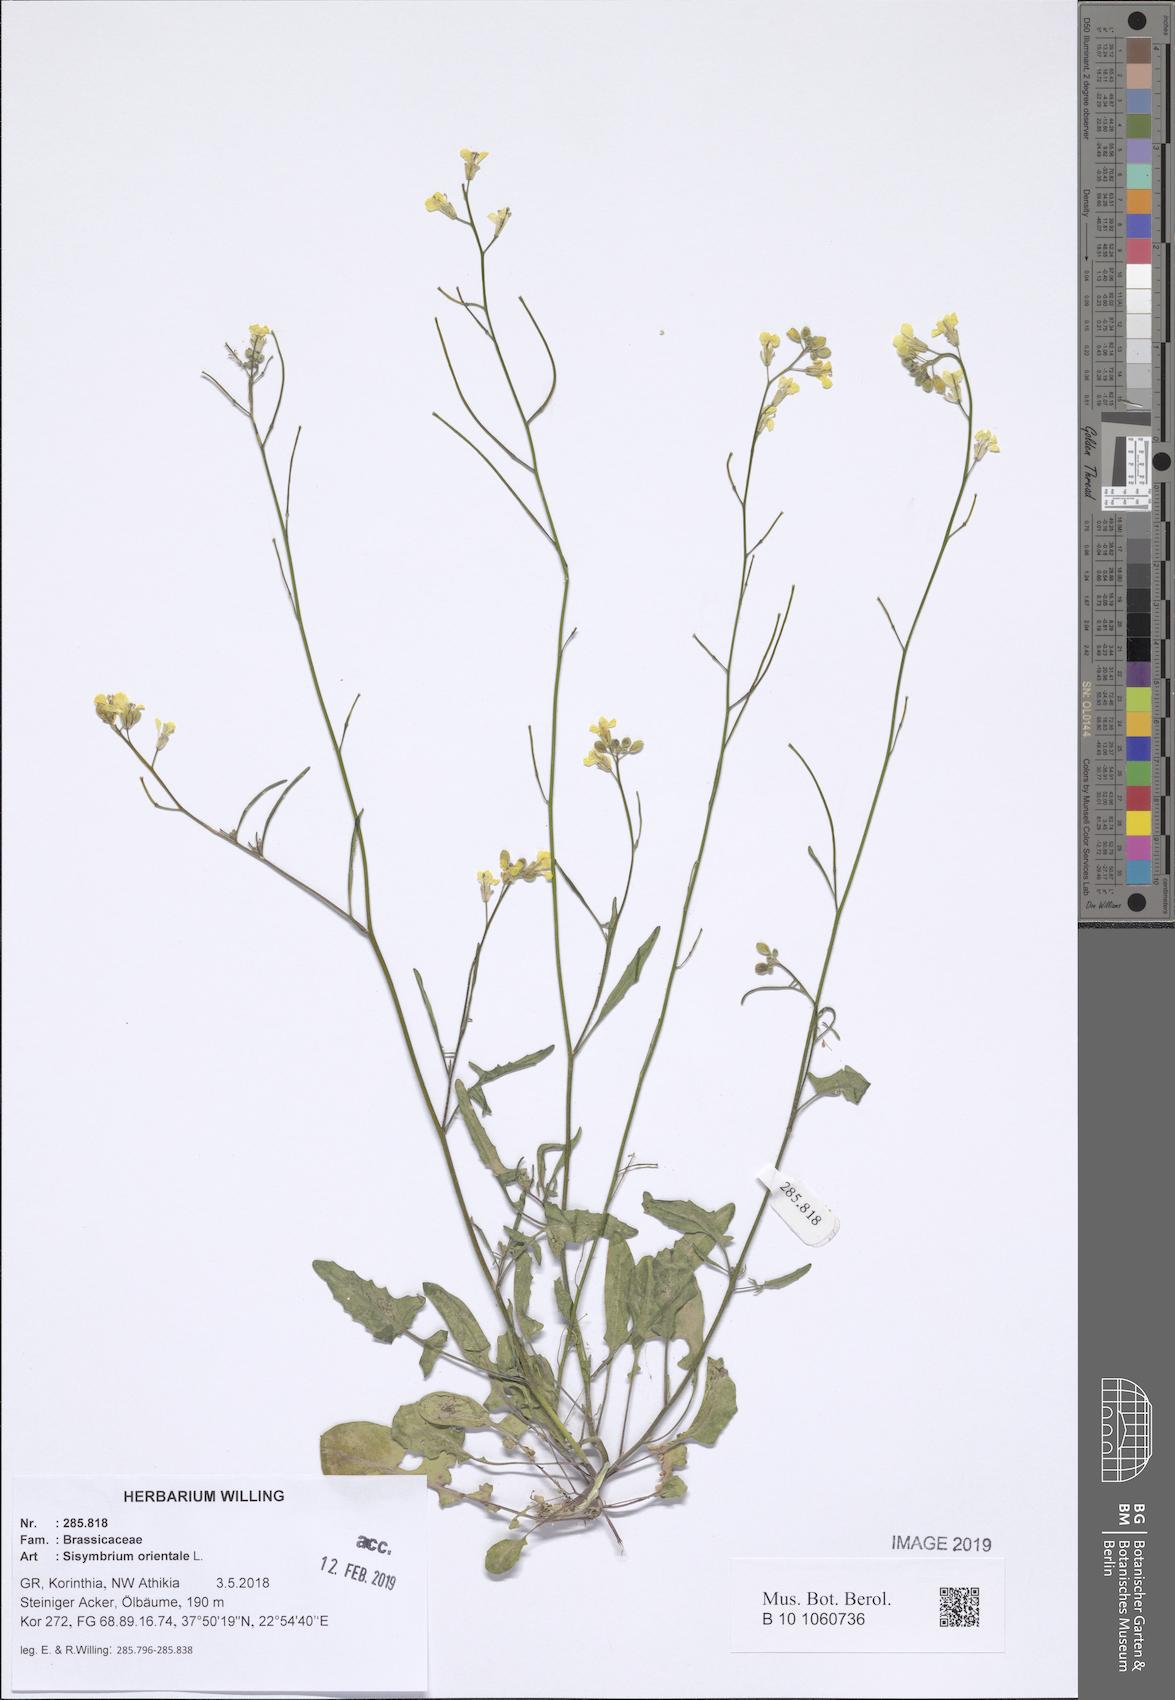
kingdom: Plantae
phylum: Tracheophyta
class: Magnoliopsida
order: Brassicales
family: Brassicaceae
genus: Sisymbrium
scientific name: Sisymbrium orientale
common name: Eastern rocket
